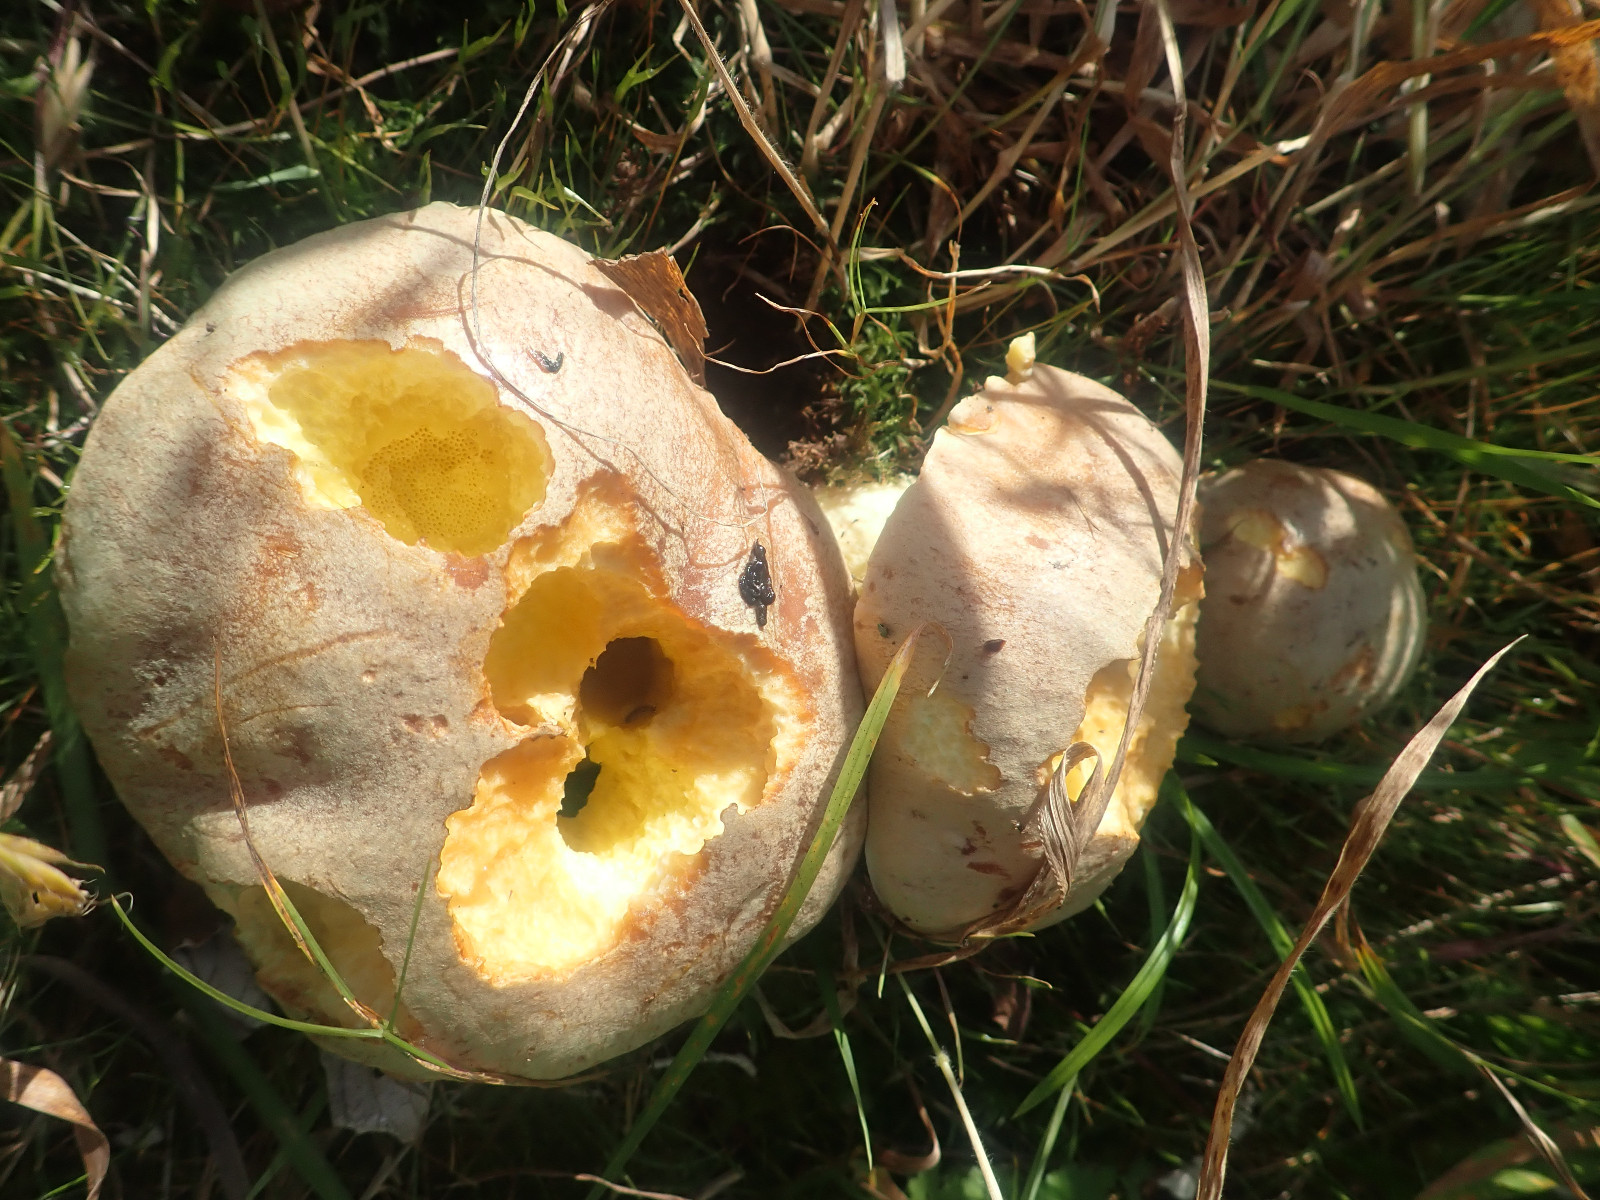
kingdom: Fungi
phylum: Basidiomycota
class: Agaricomycetes
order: Boletales
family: Boletaceae
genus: Hemileccinum
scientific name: Hemileccinum impolitum
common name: bleg rørhat
